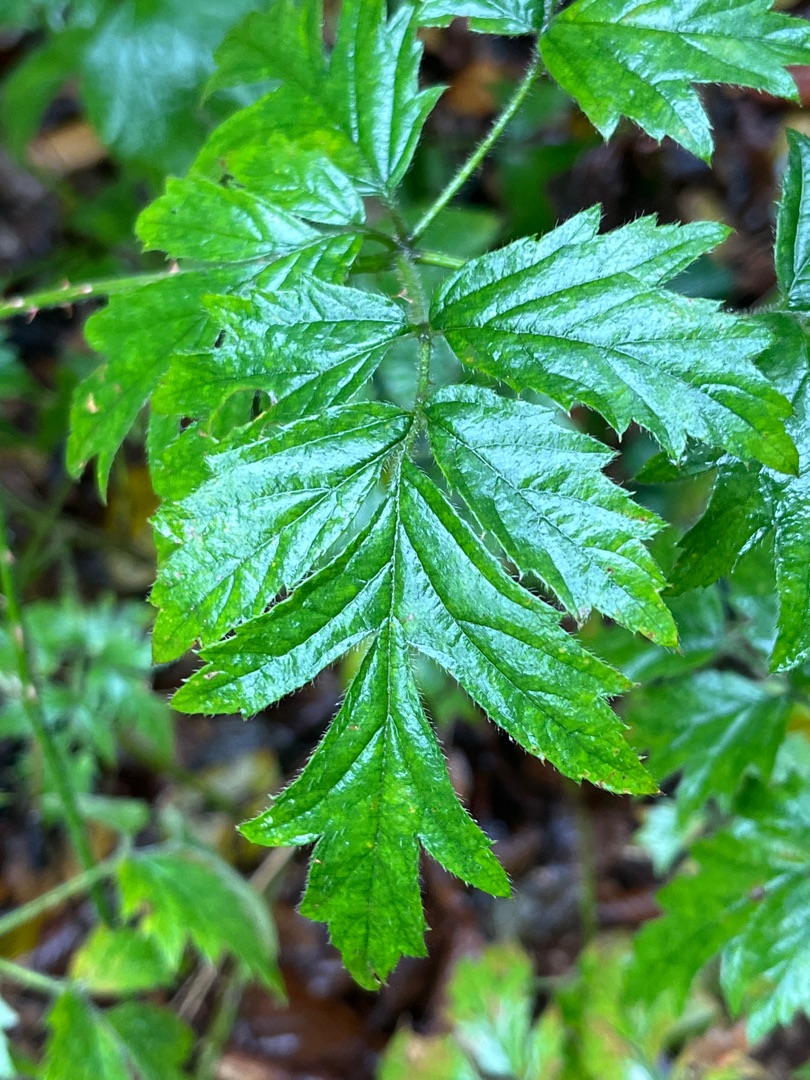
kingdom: Plantae
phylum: Tracheophyta
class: Magnoliopsida
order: Rosales
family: Rosaceae
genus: Rubus
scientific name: Rubus laciniatus
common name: Fliget brombær
